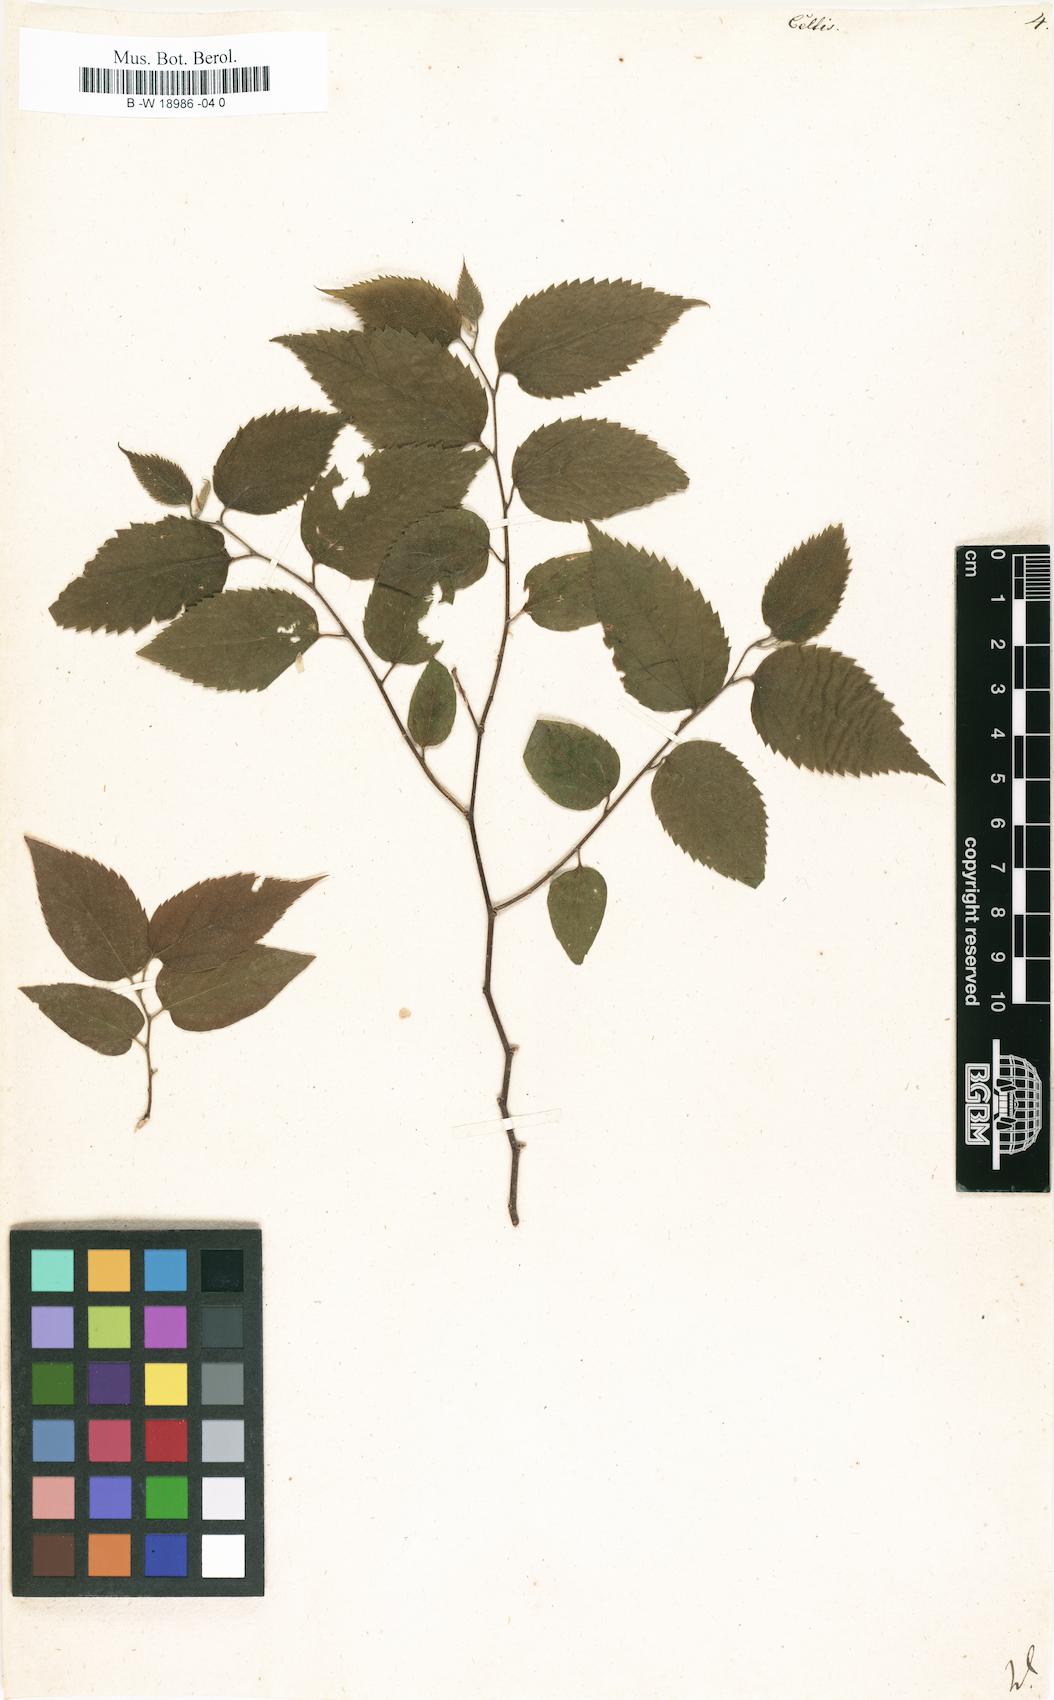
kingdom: Plantae
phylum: Tracheophyta
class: Magnoliopsida
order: Rosales
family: Cannabaceae
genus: Celtis
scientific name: Celtis
